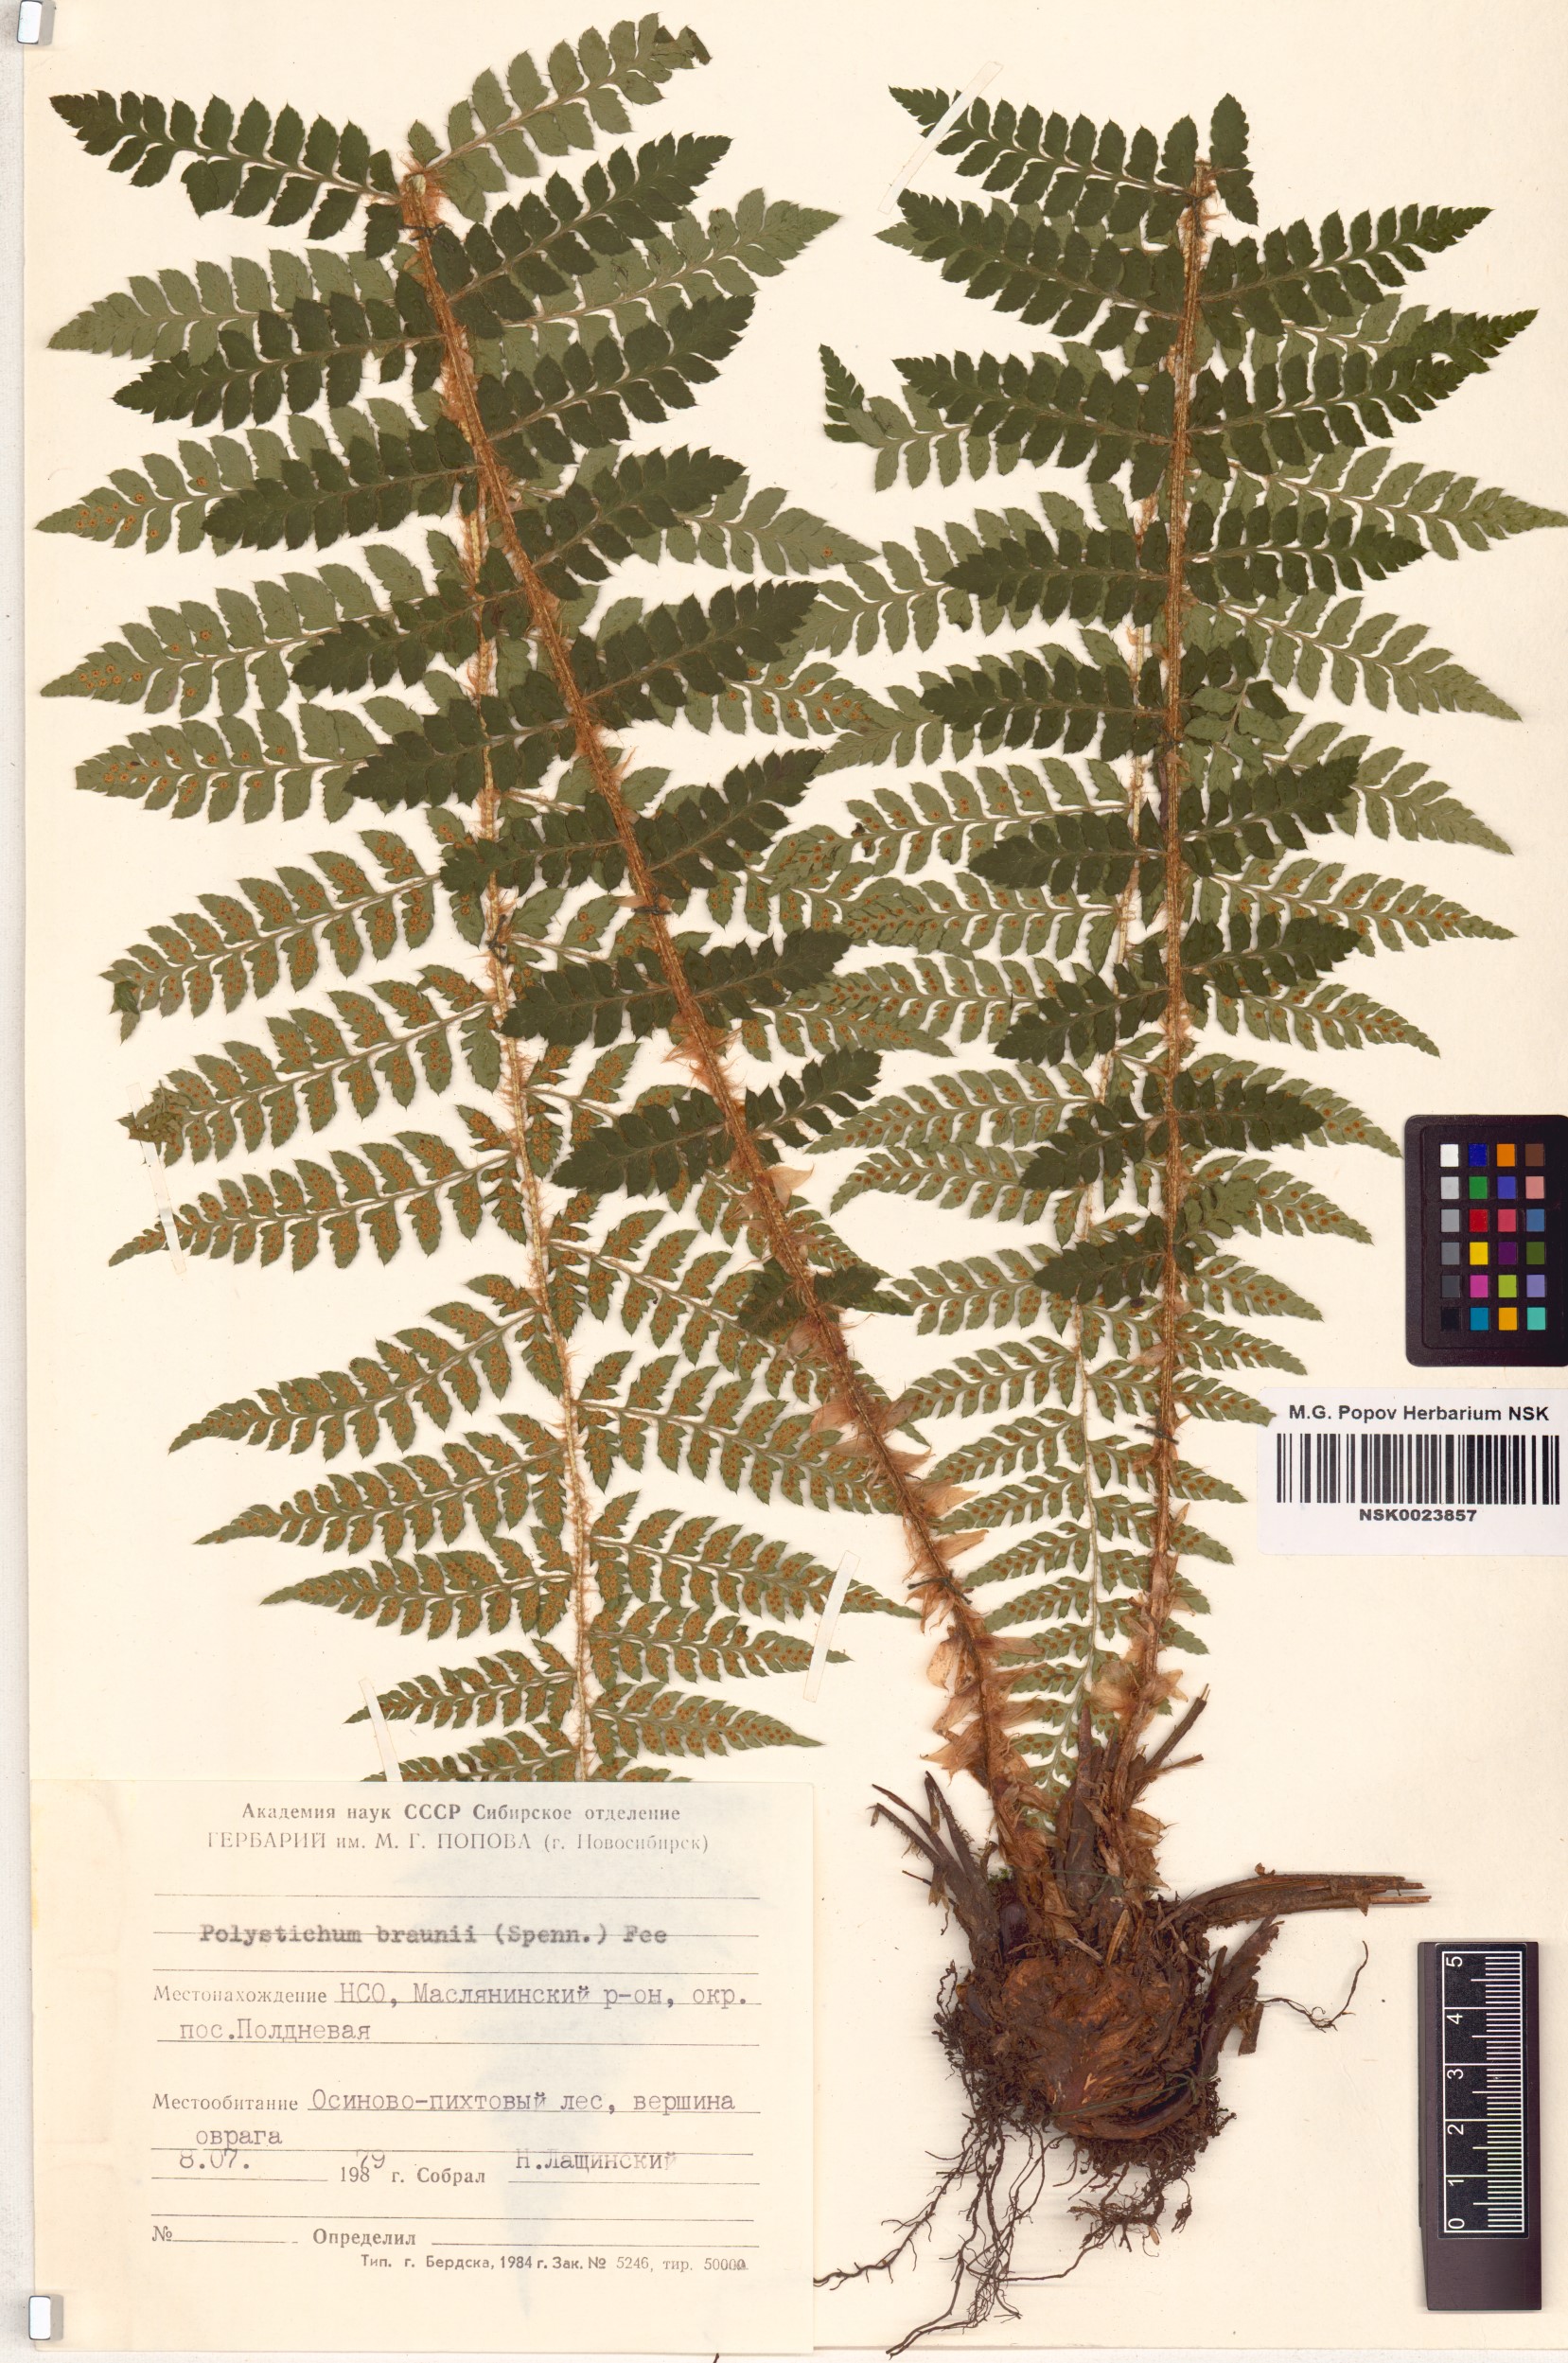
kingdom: Plantae
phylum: Tracheophyta
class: Polypodiopsida
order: Polypodiales
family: Dryopteridaceae
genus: Polystichum
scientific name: Polystichum braunii
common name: Braun's holly fern
